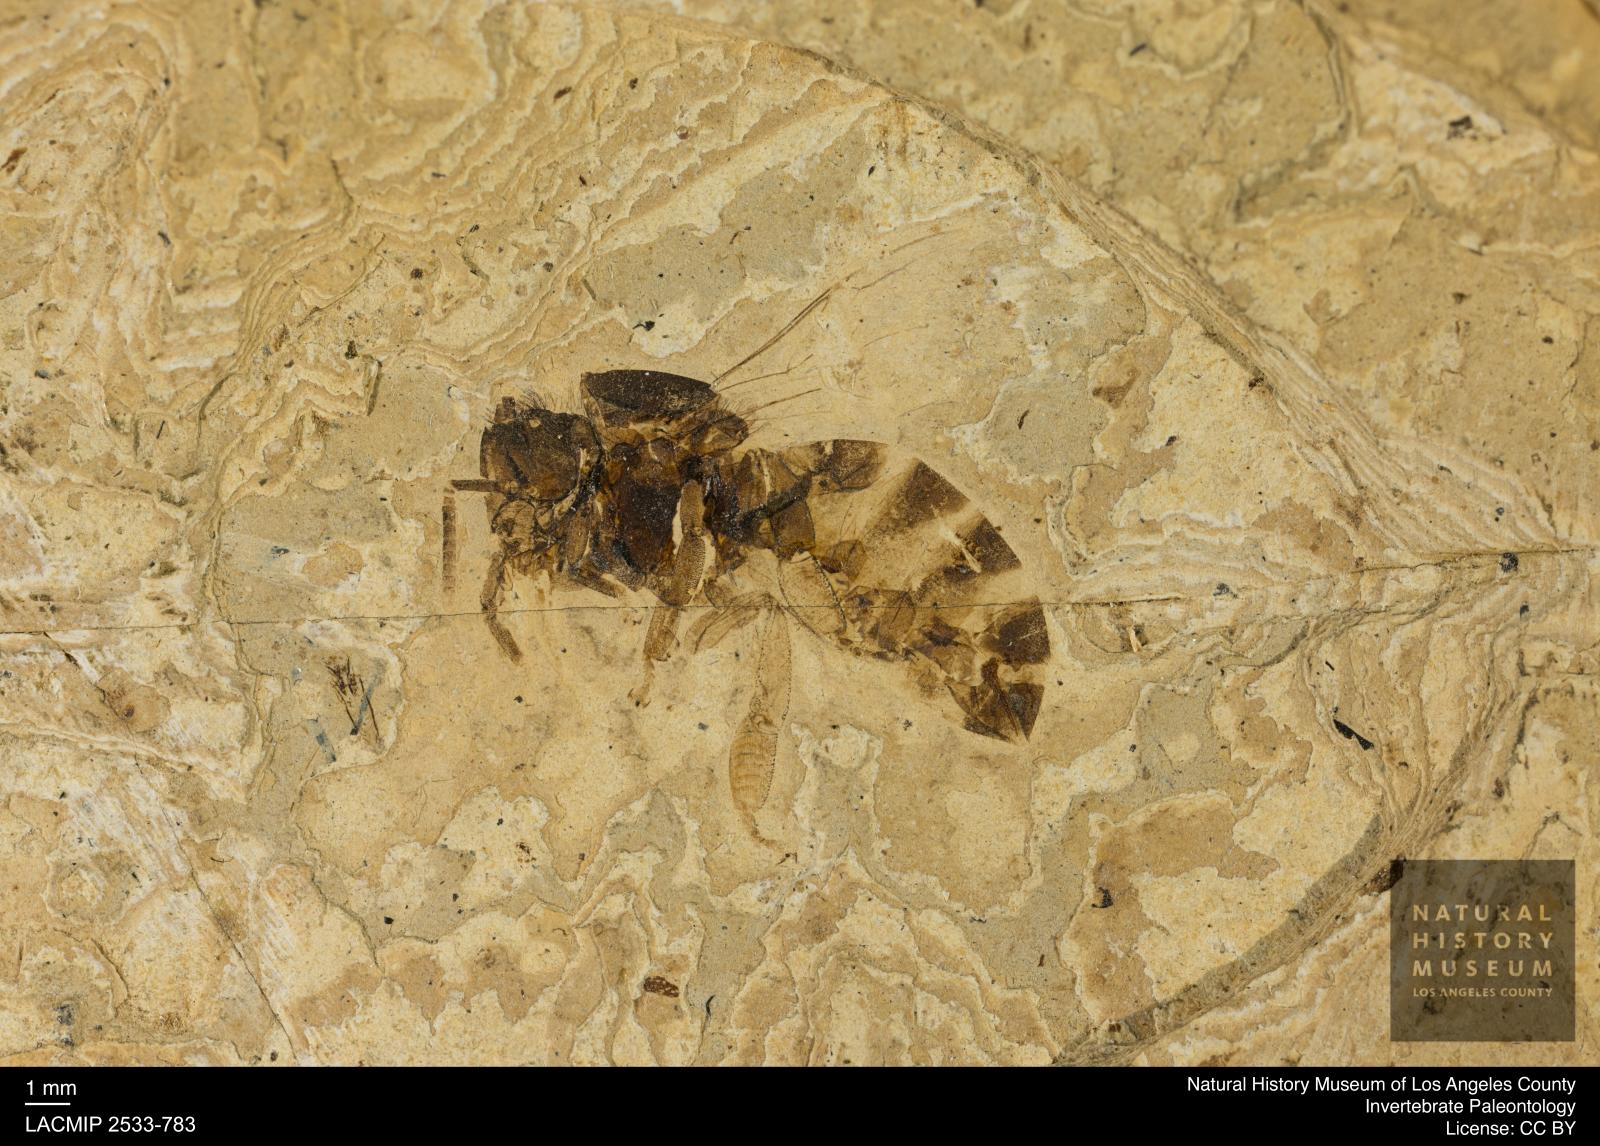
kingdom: Animalia
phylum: Arthropoda
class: Insecta
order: Hymenoptera
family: Apidae
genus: Apis
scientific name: Apis henshawi
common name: Henshaw's honey bee
